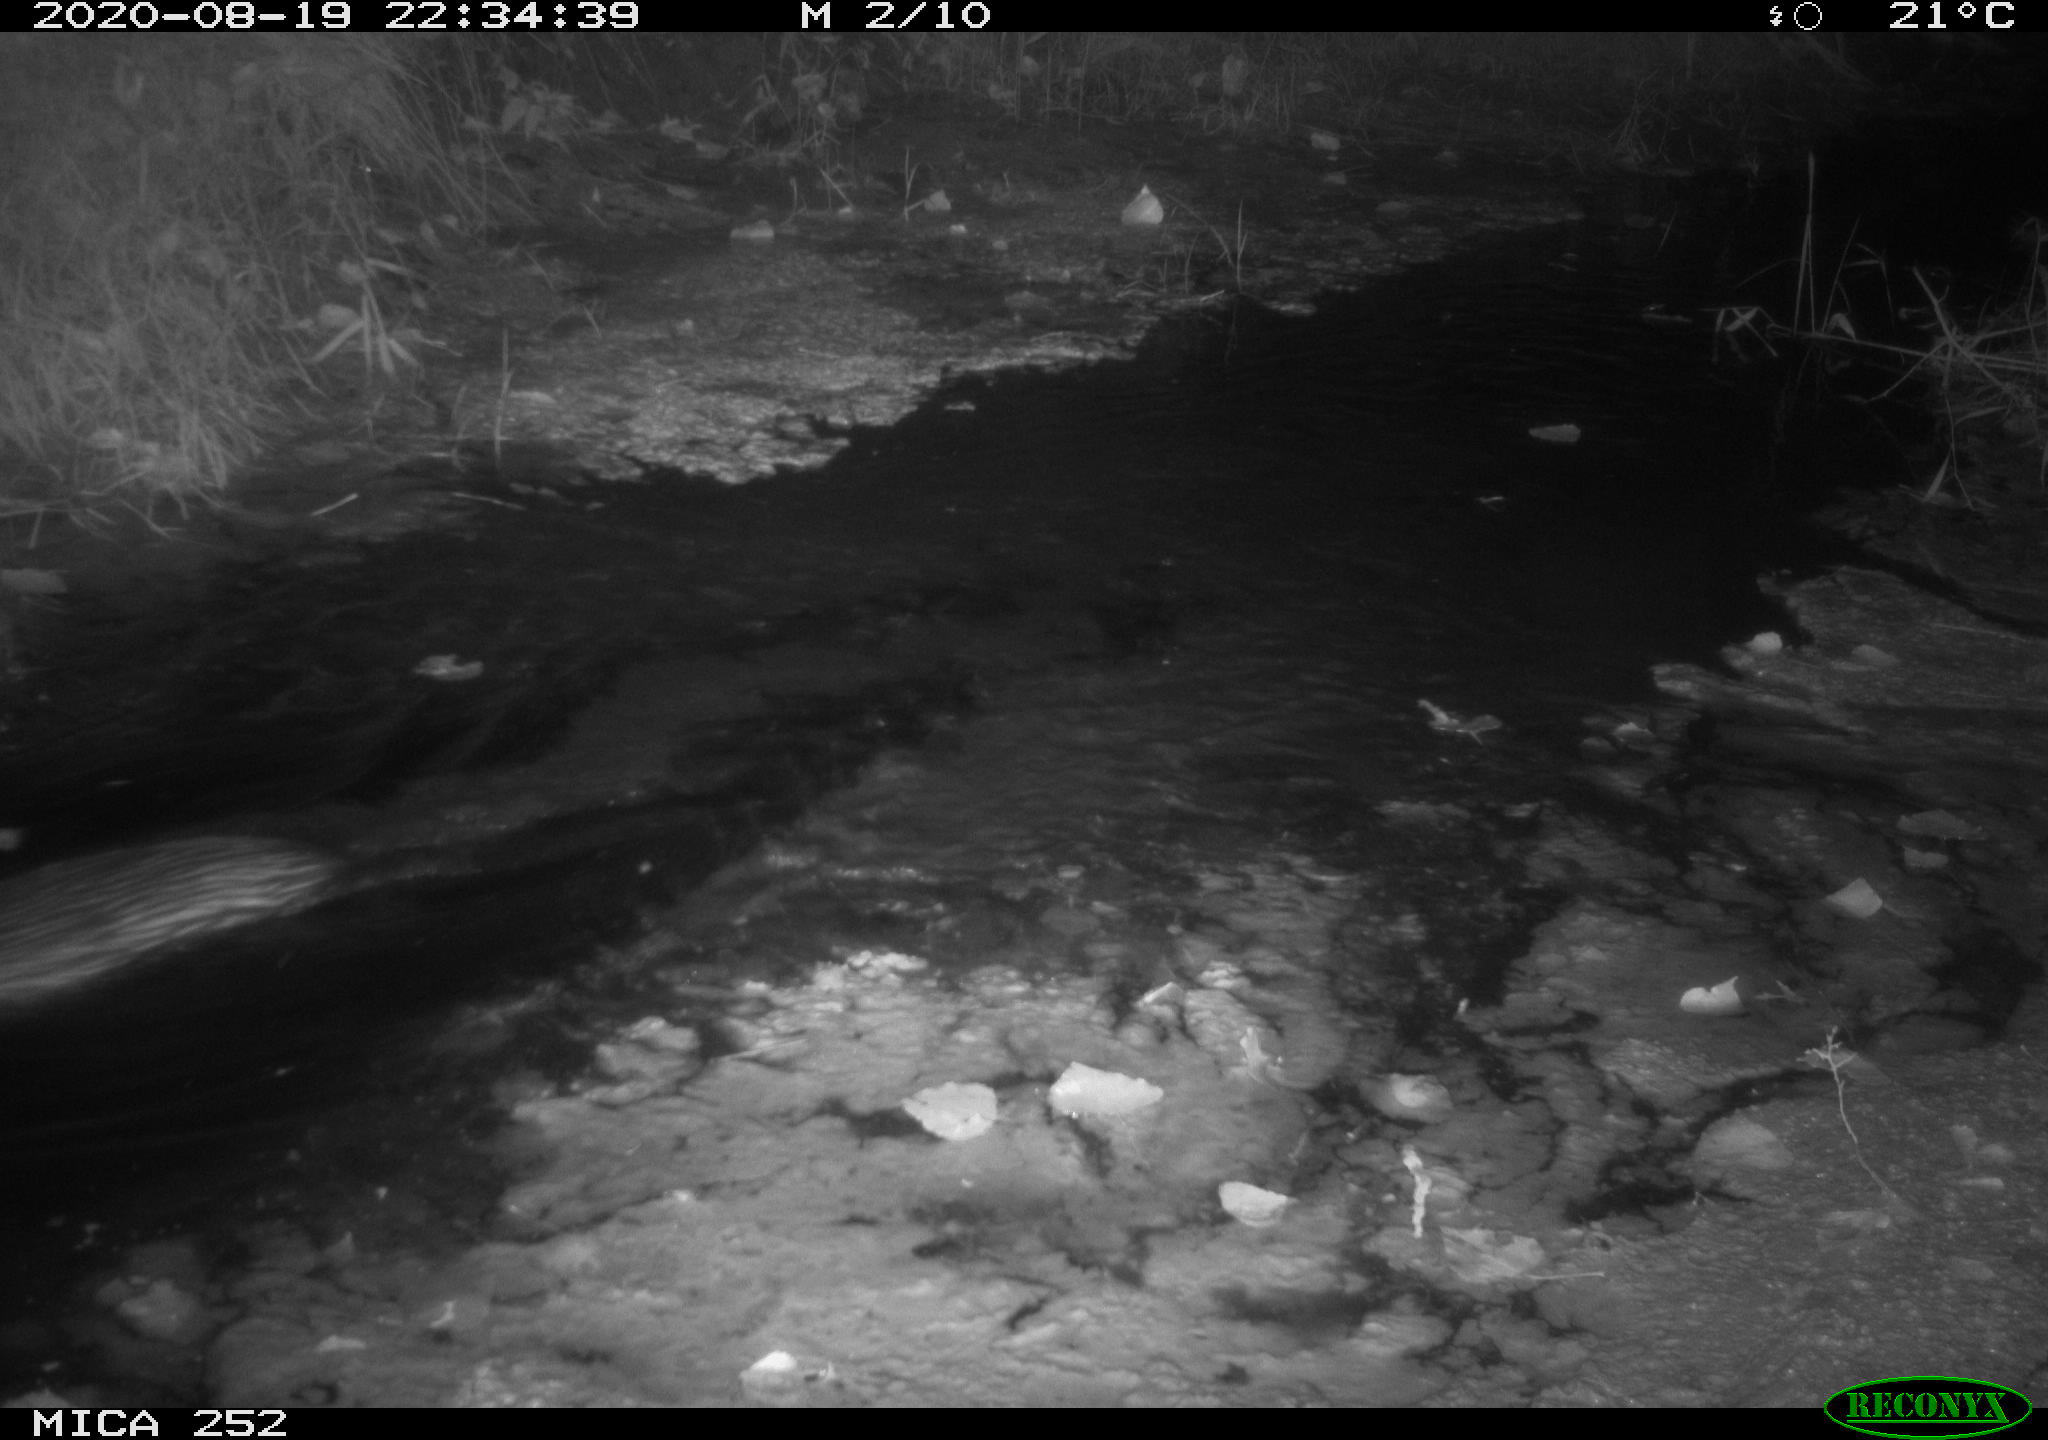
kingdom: Animalia
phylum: Chordata
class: Mammalia
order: Rodentia
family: Castoridae
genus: Castor
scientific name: Castor fiber
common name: Eurasian beaver
